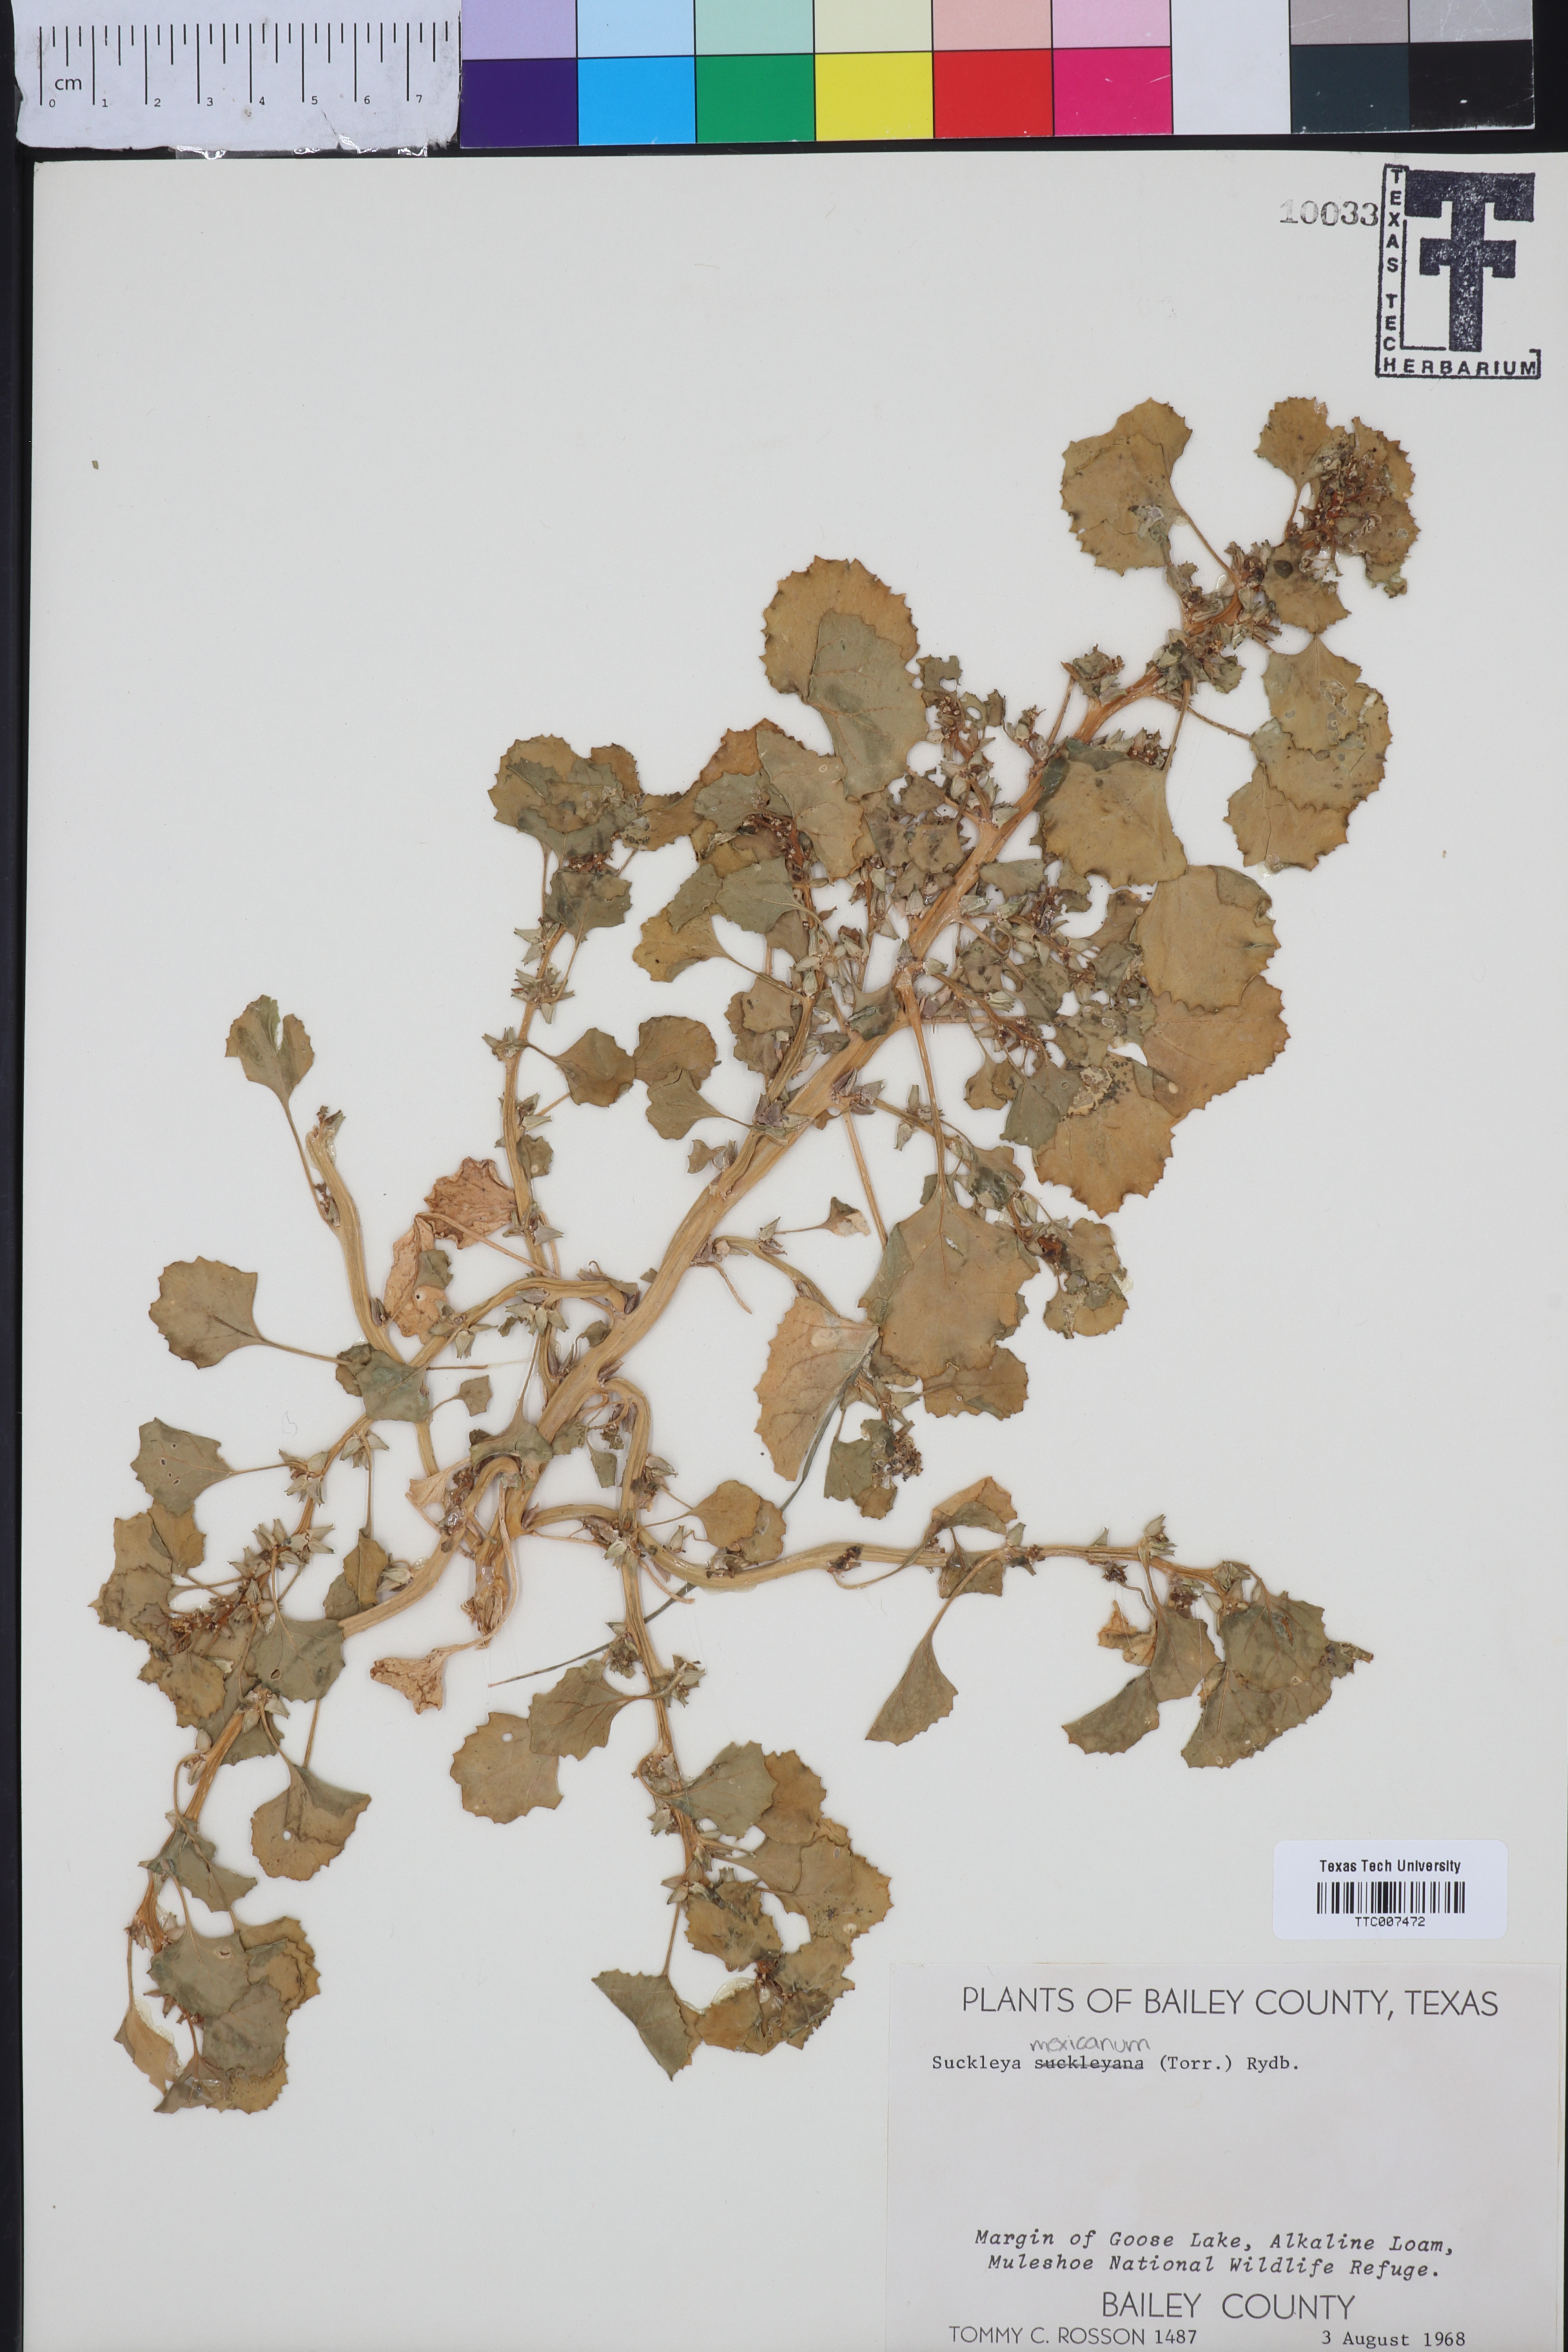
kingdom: Plantae
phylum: Tracheophyta
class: Magnoliopsida
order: Caryophyllales
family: Amaranthaceae
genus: Suckleya
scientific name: Suckleya suckleyana
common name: Poison suckleya
